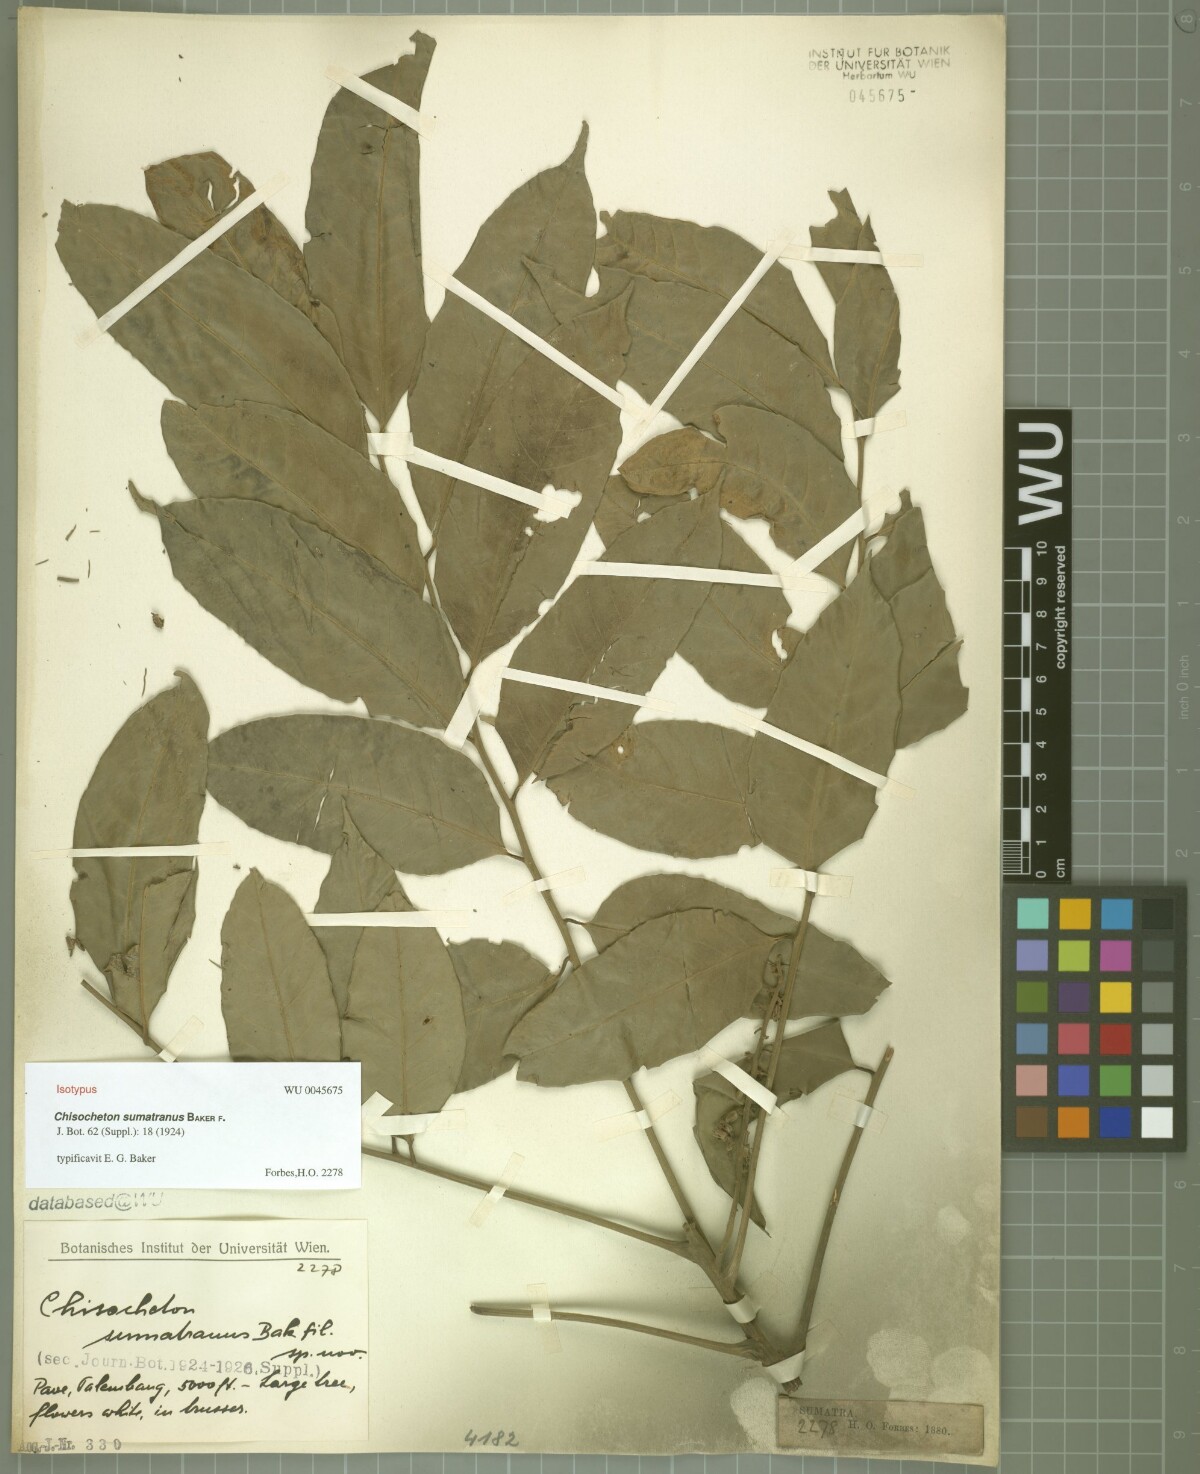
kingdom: Plantae
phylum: Tracheophyta
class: Magnoliopsida
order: Sapindales
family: Meliaceae
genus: Aglaia
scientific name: Aglaia crassinervia
